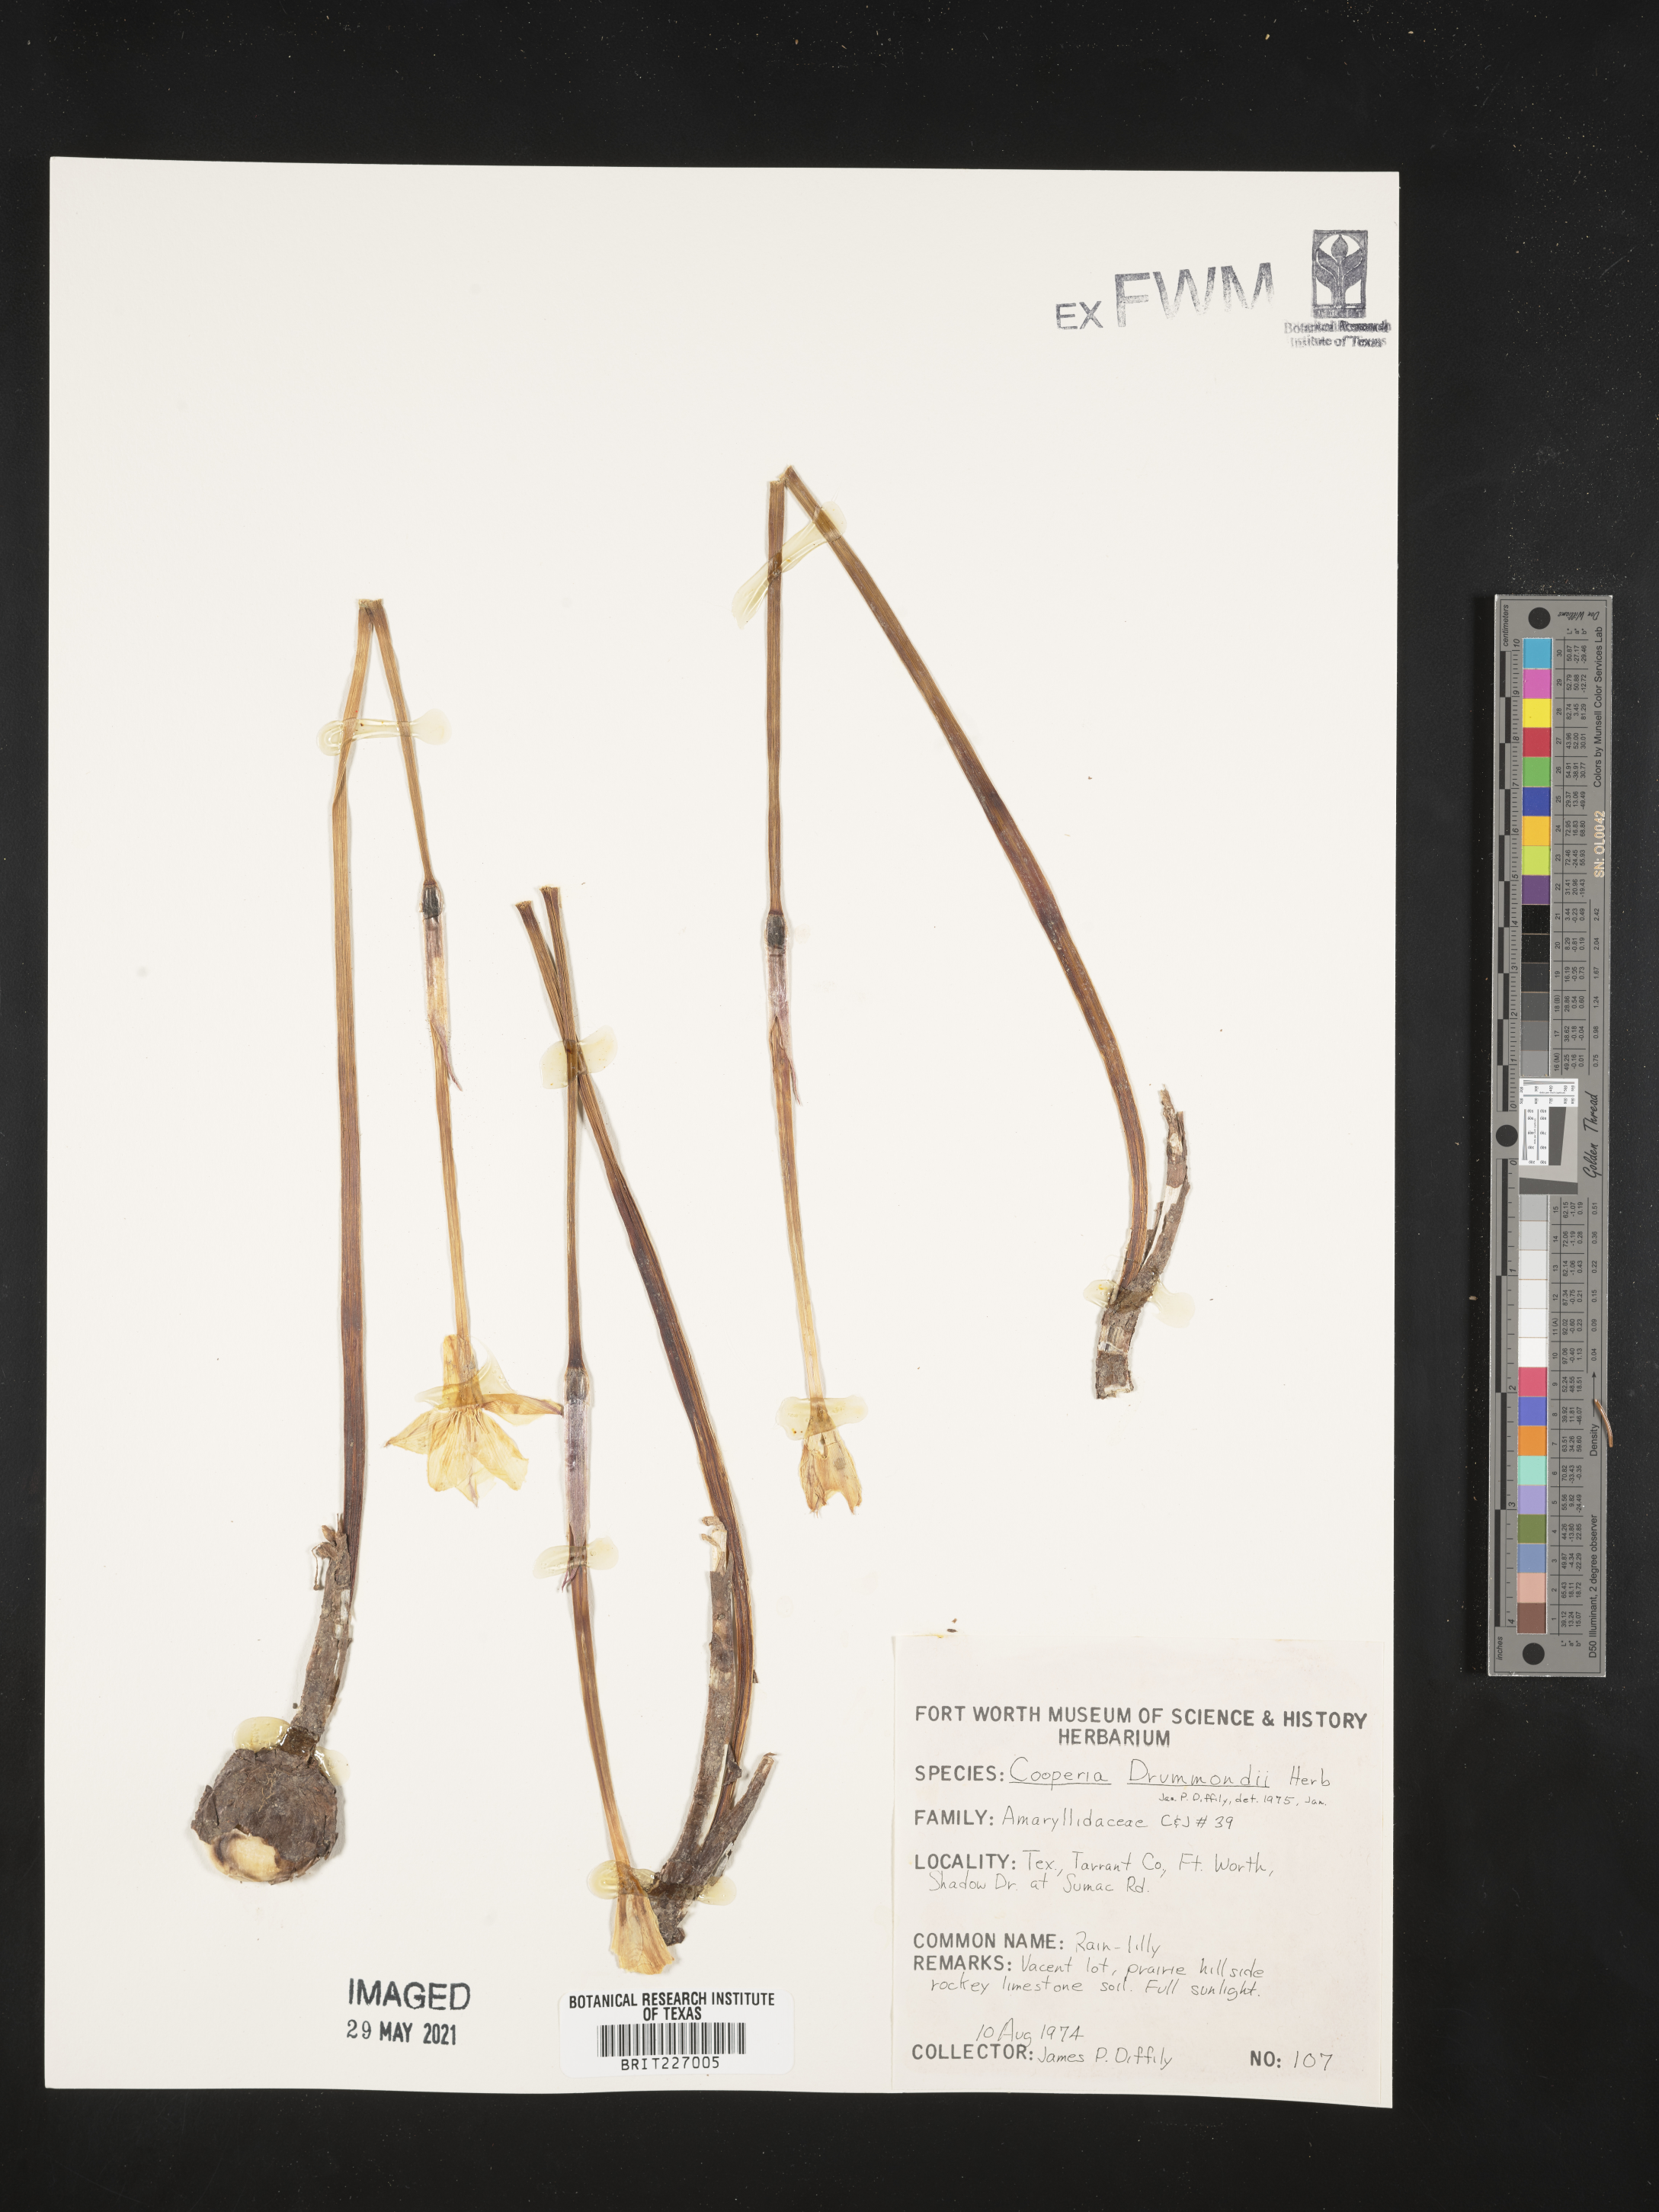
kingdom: Plantae
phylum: Tracheophyta
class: Liliopsida
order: Asparagales
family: Amaryllidaceae
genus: Zephyranthes
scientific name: Zephyranthes chlorosolen
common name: Evening rain-lily
